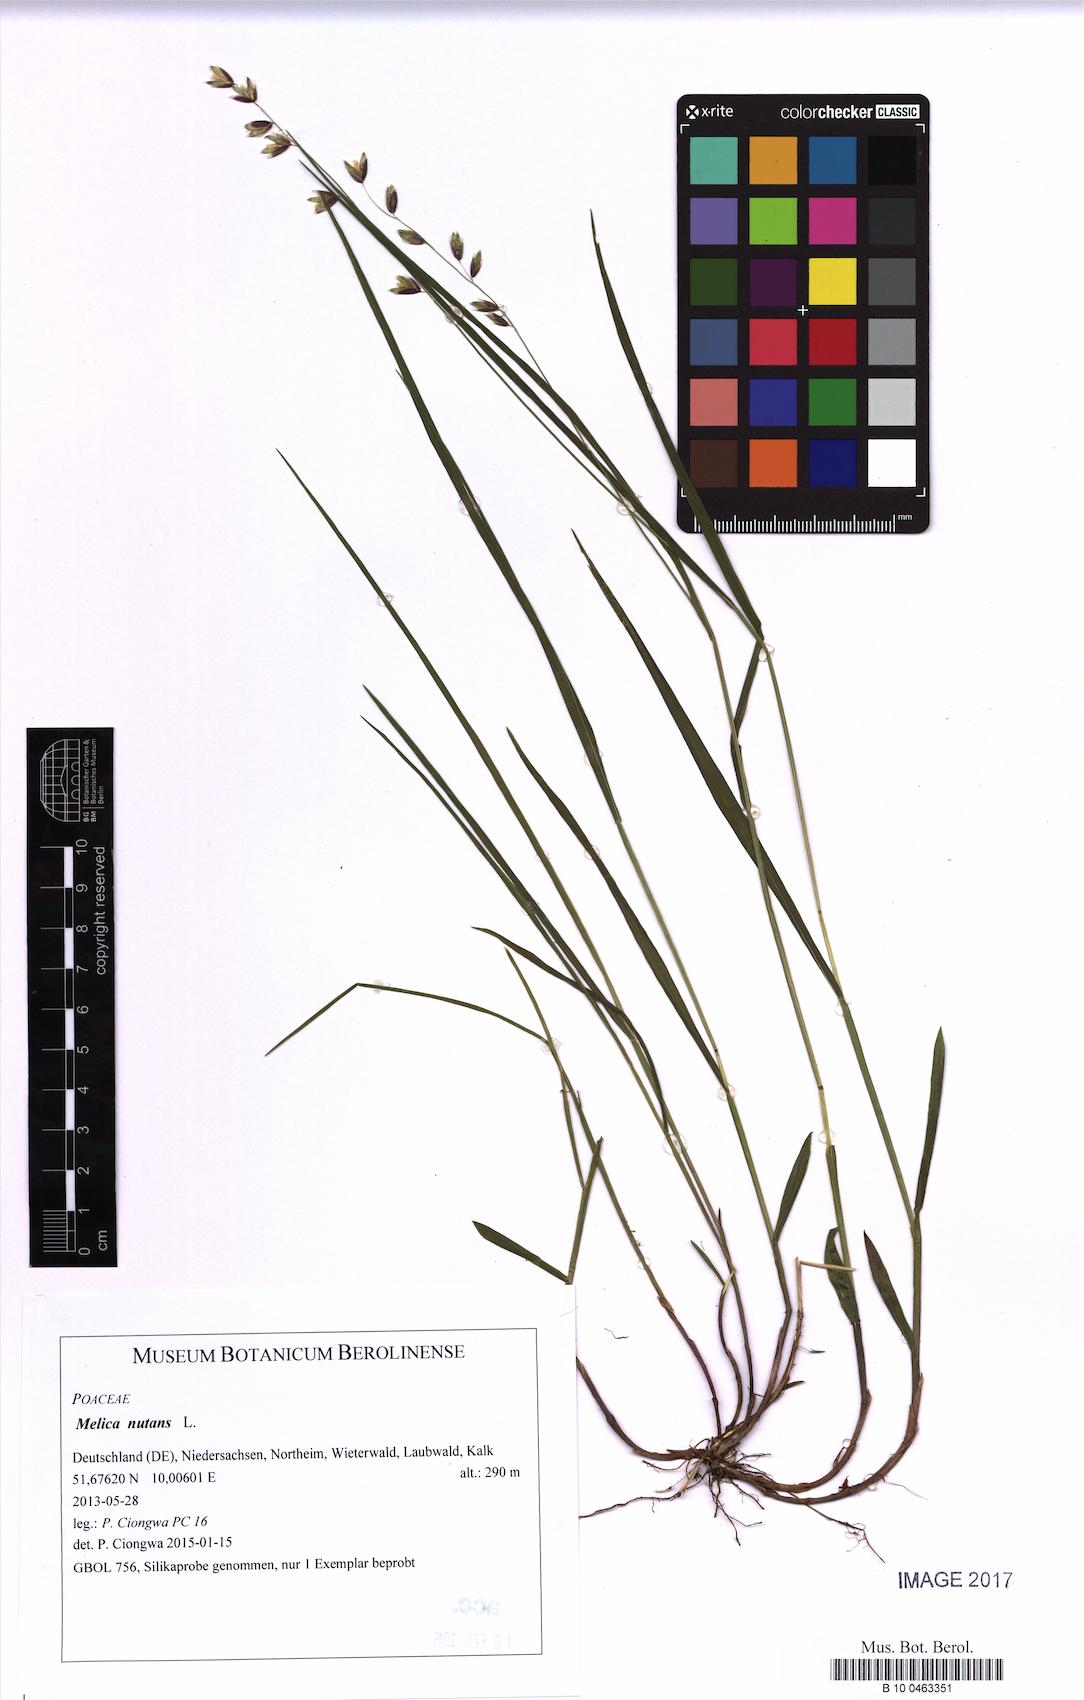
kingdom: Plantae
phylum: Tracheophyta
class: Liliopsida
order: Poales
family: Poaceae
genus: Melica
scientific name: Melica nutans
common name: Mountain melick
